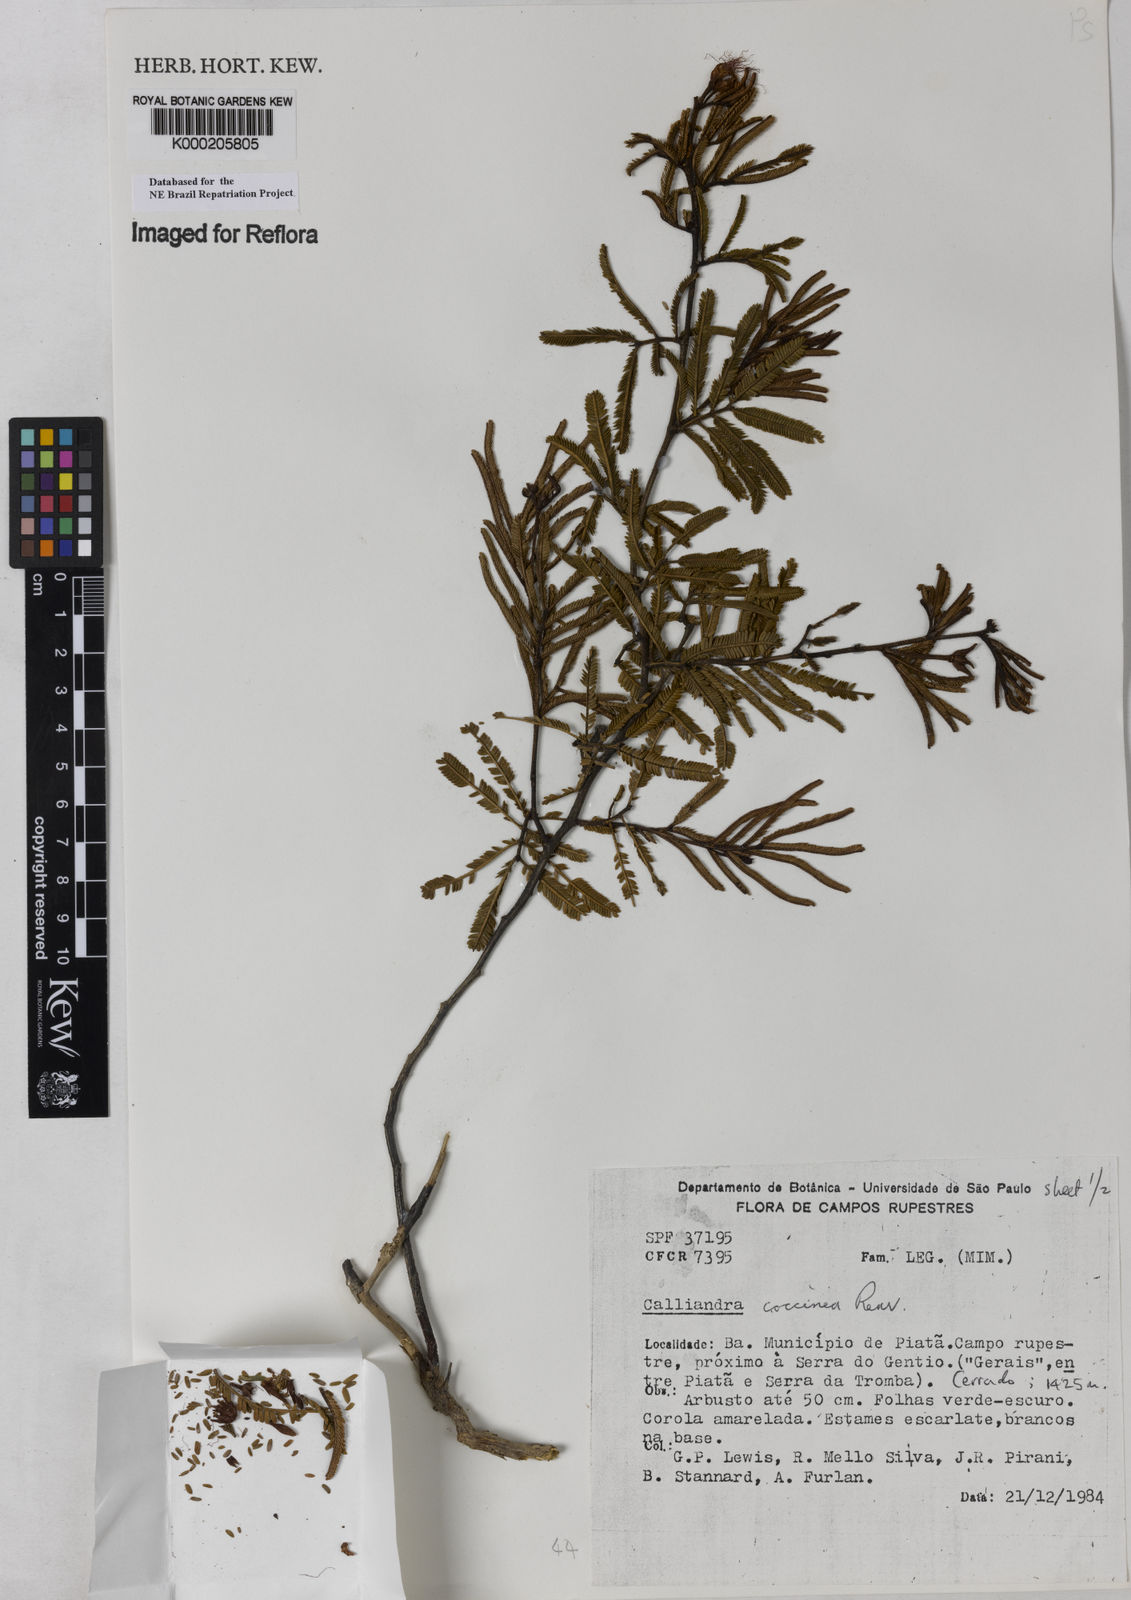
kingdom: Plantae
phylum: Tracheophyta
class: Magnoliopsida
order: Fabales
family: Fabaceae
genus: Calliandra
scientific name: Calliandra coccinea
